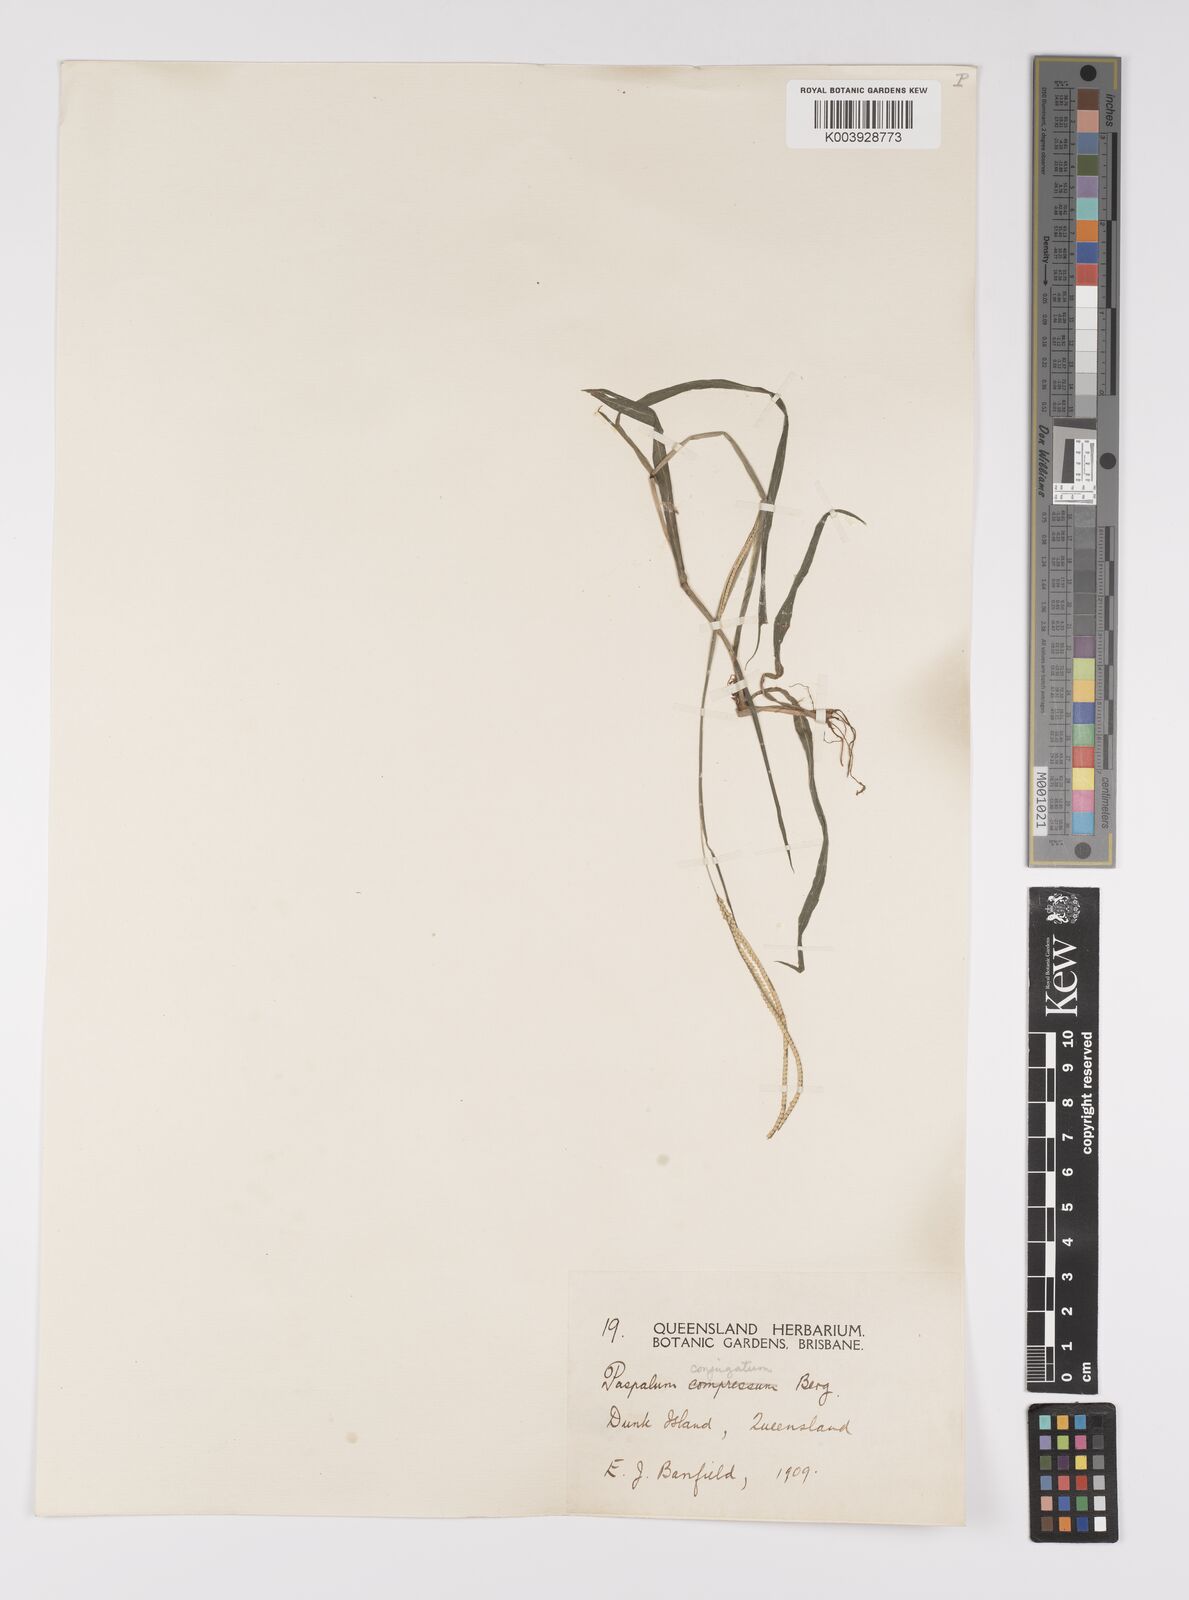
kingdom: Plantae
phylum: Tracheophyta
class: Liliopsida
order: Poales
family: Poaceae
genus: Paspalum
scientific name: Paspalum conjugatum
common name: Hilograss
